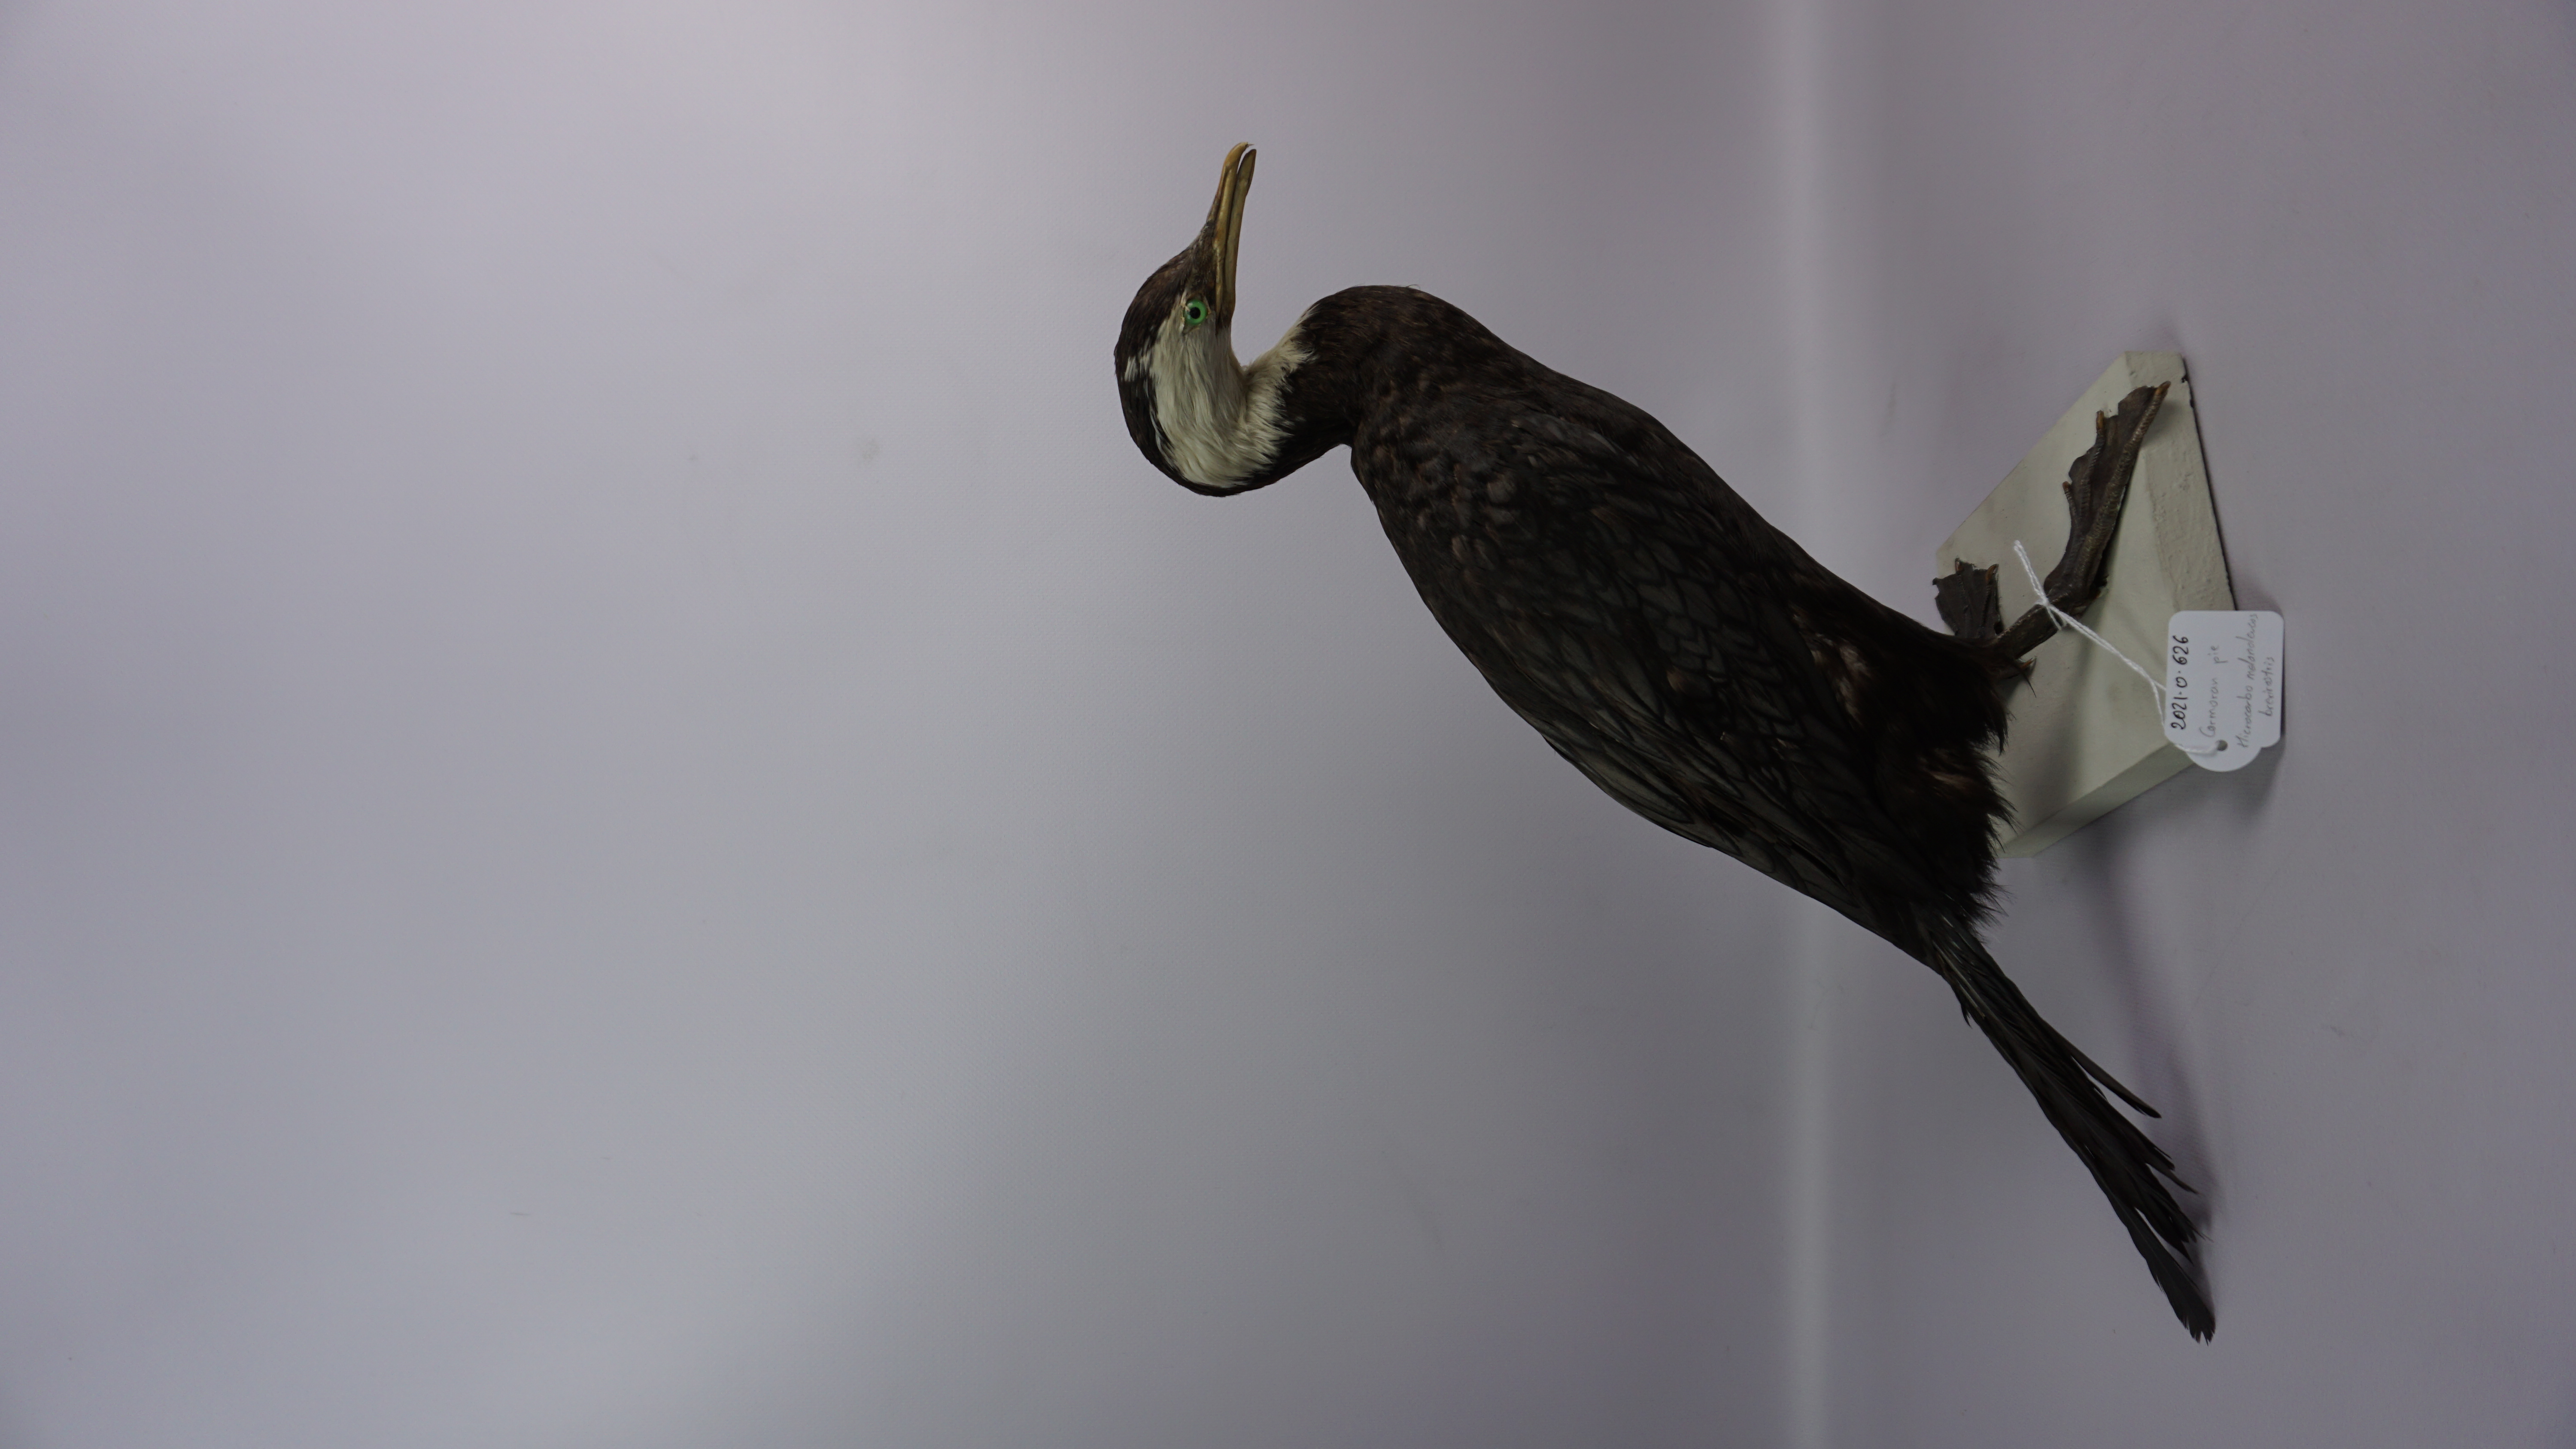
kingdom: Animalia
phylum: Chordata
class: Aves
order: Suliformes
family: Phalacrocoracidae
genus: Microcarbo
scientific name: Microcarbo melanoleucos
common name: Little pied cormorant
